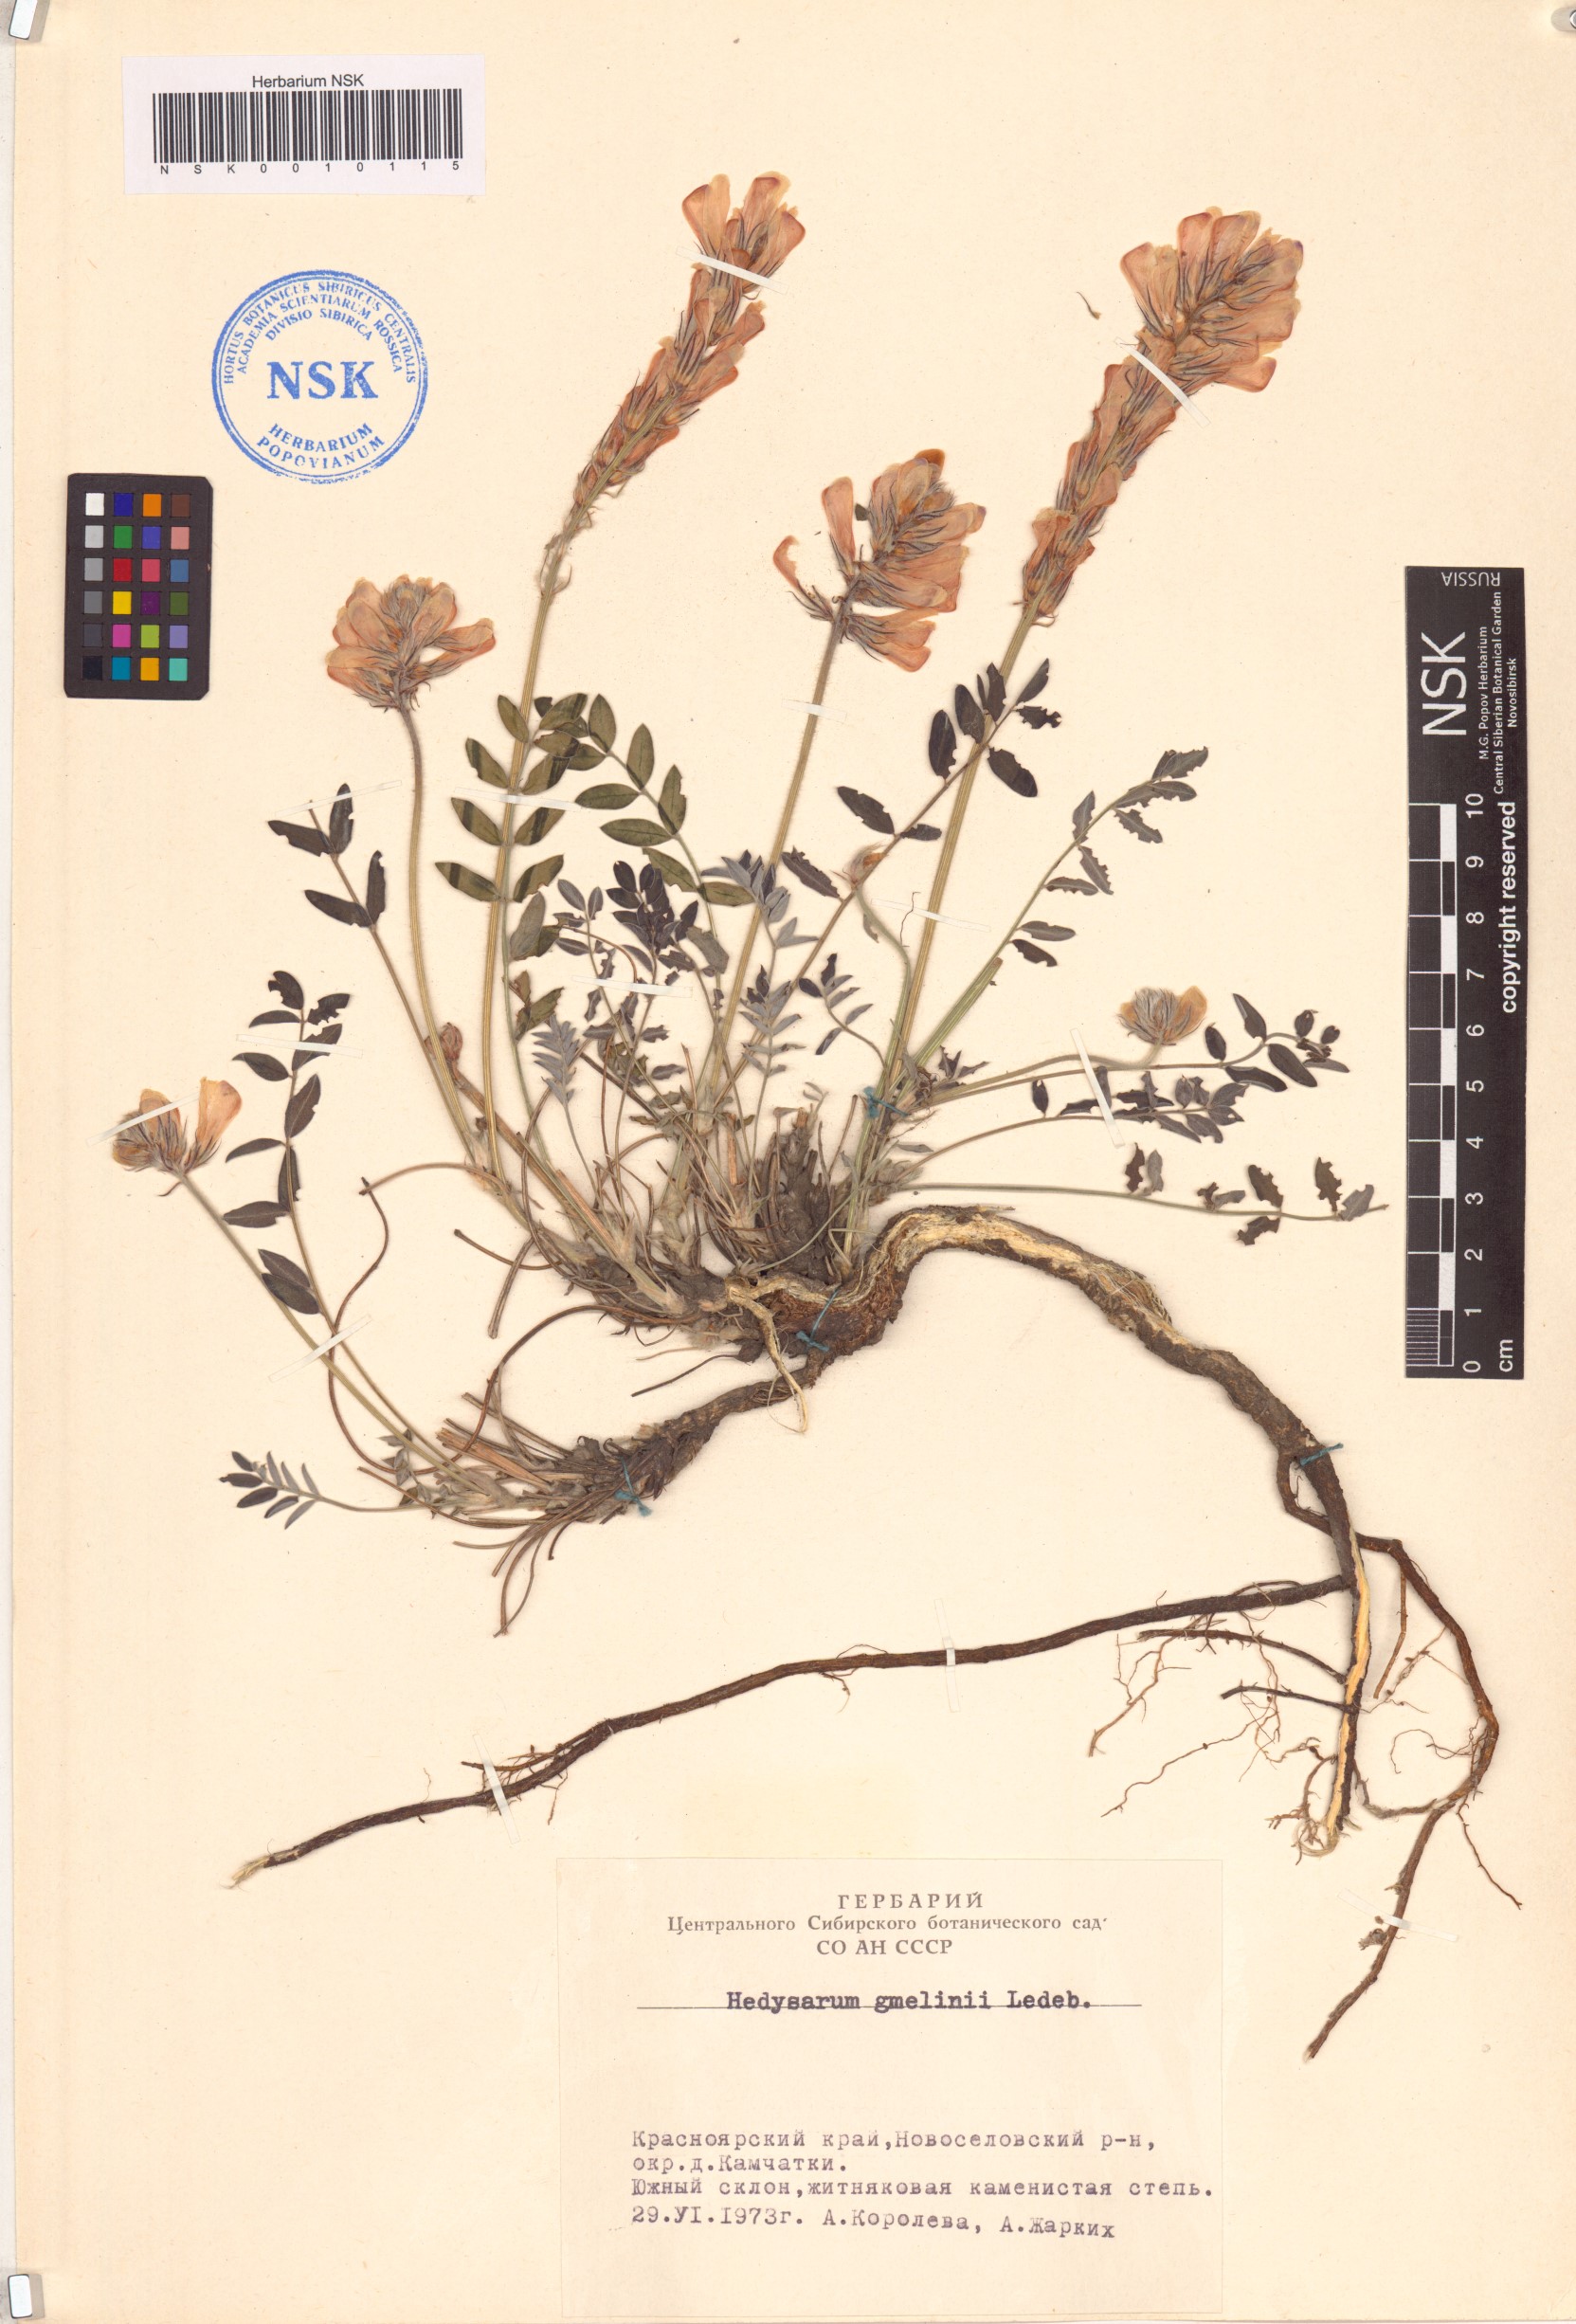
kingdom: Plantae
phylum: Tracheophyta
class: Magnoliopsida
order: Fabales
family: Fabaceae
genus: Hedysarum
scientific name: Hedysarum gmelinii
